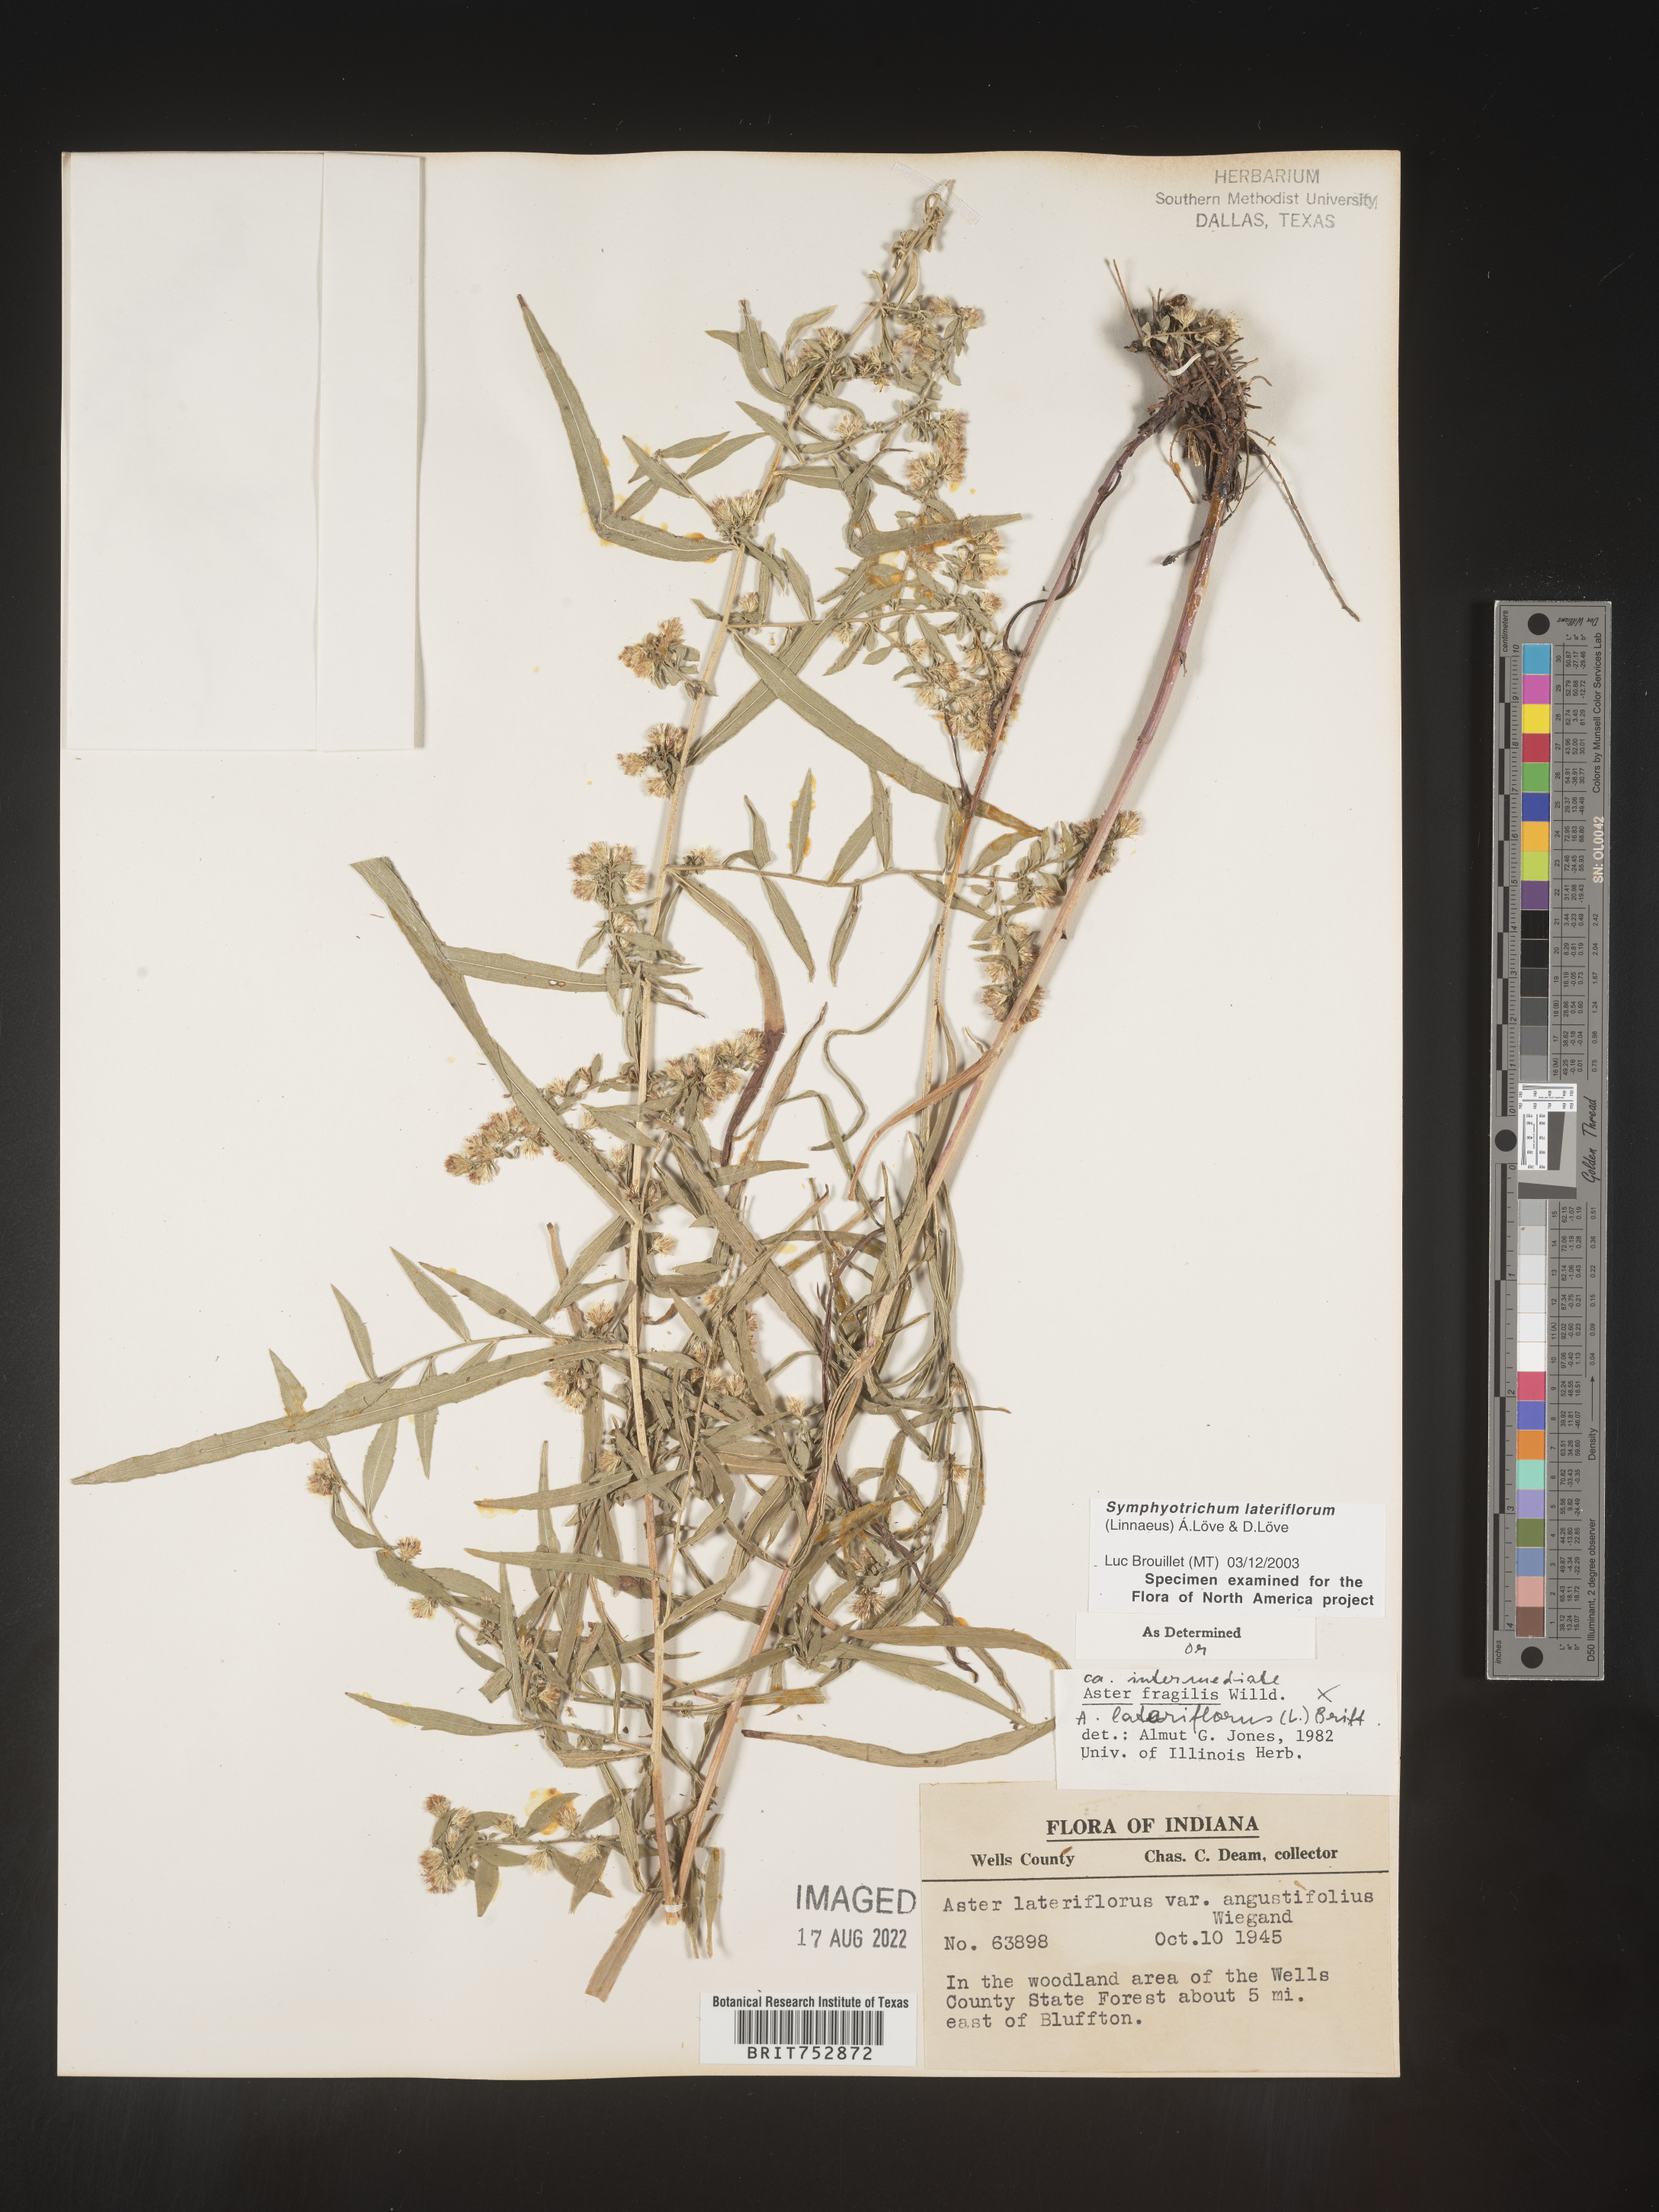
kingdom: Plantae
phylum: Tracheophyta
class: Magnoliopsida
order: Asterales
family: Asteraceae
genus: Symphyotrichum
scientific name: Symphyotrichum lateriflorum
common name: Calico aster
